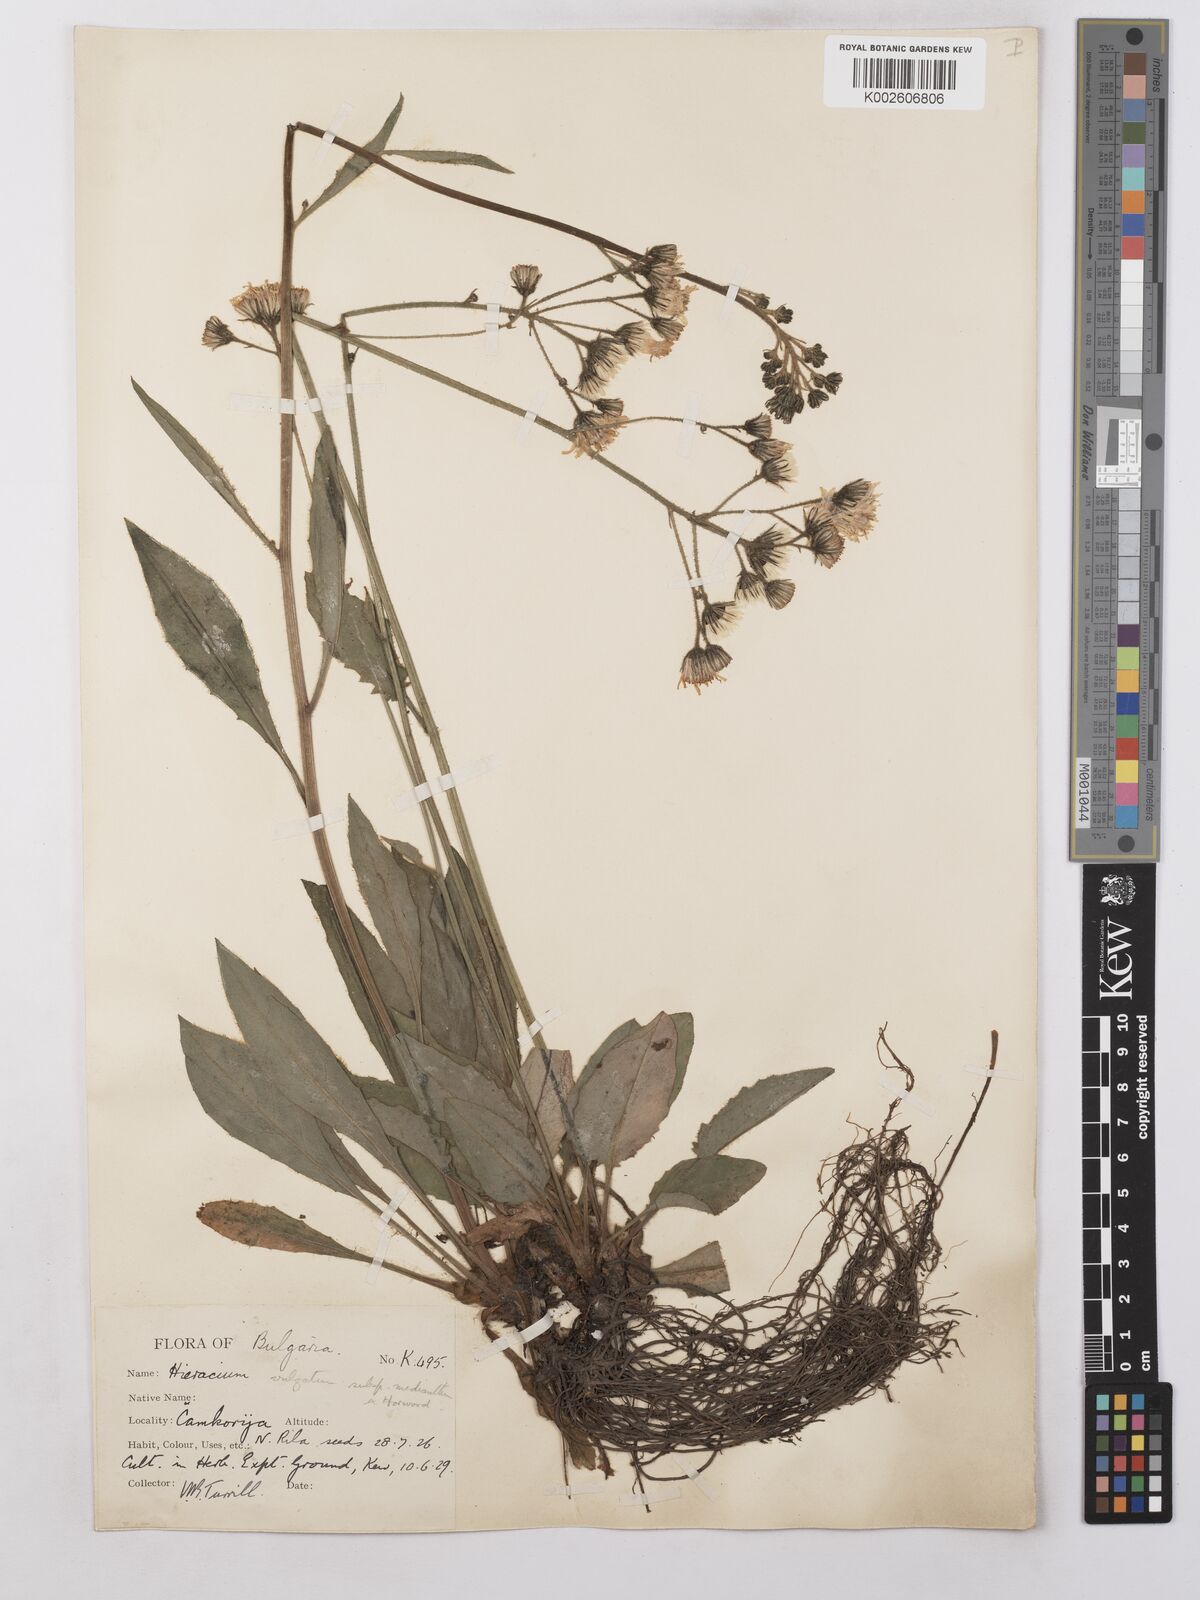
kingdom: Plantae
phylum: Tracheophyta
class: Magnoliopsida
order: Asterales
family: Asteraceae
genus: Hieracium
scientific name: Hieracium
